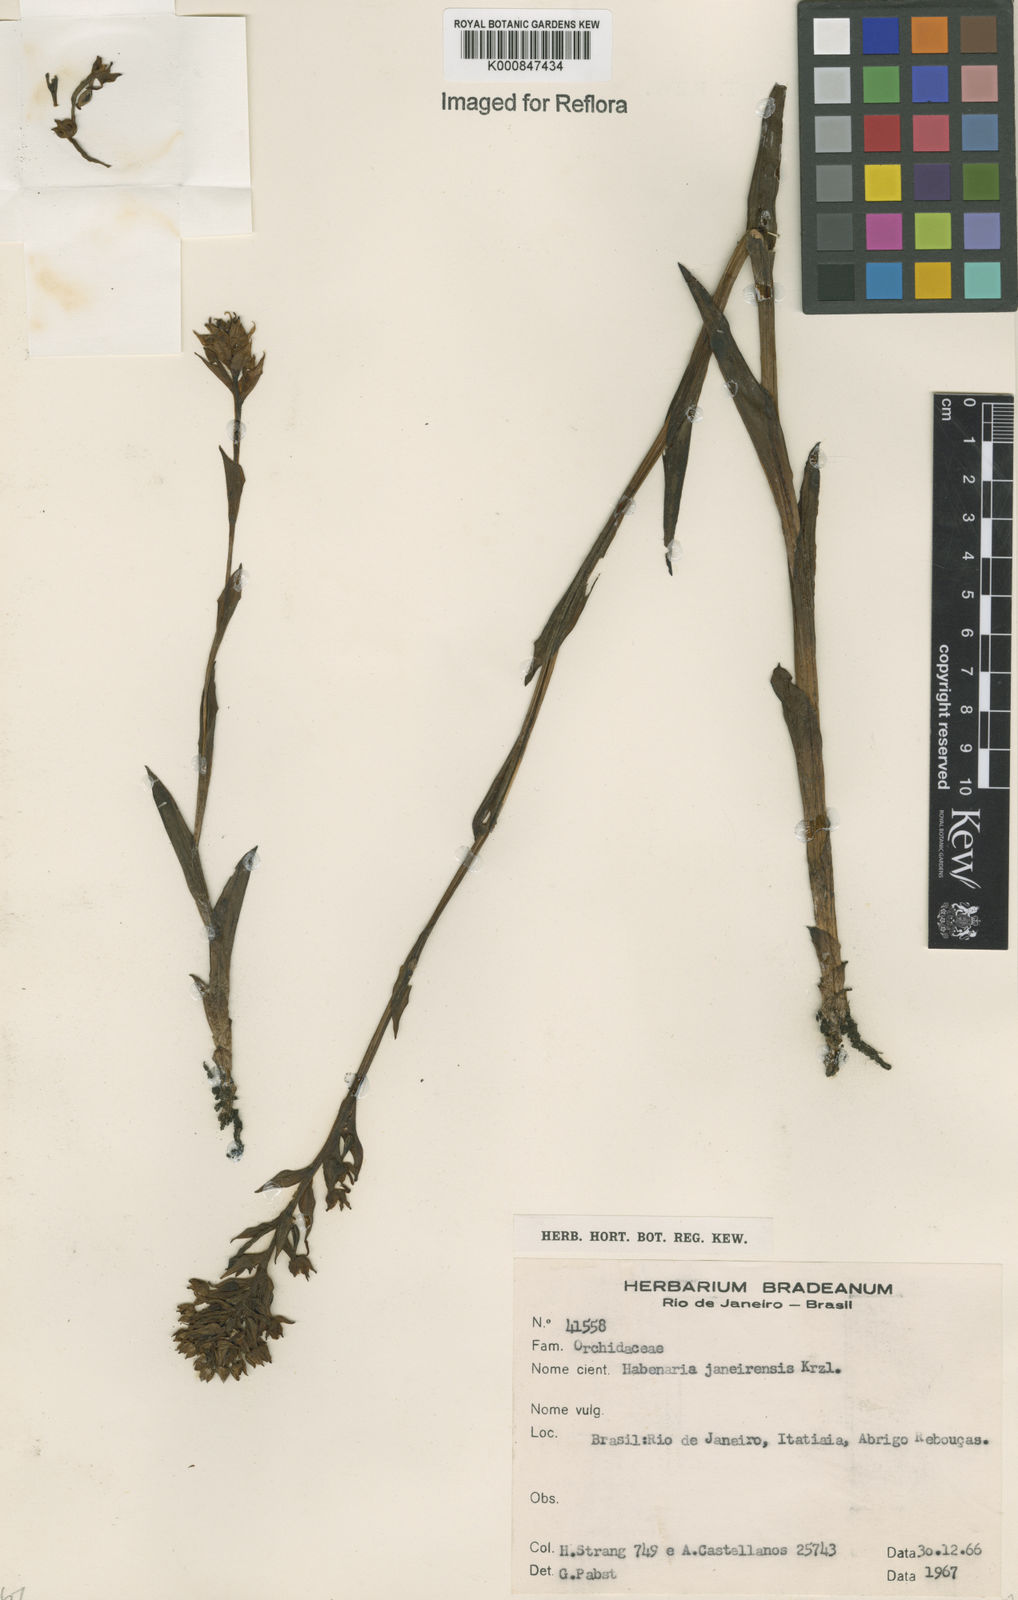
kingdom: Plantae
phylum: Tracheophyta
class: Liliopsida
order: Asparagales
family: Orchidaceae
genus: Habenaria
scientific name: Habenaria paranaensis
